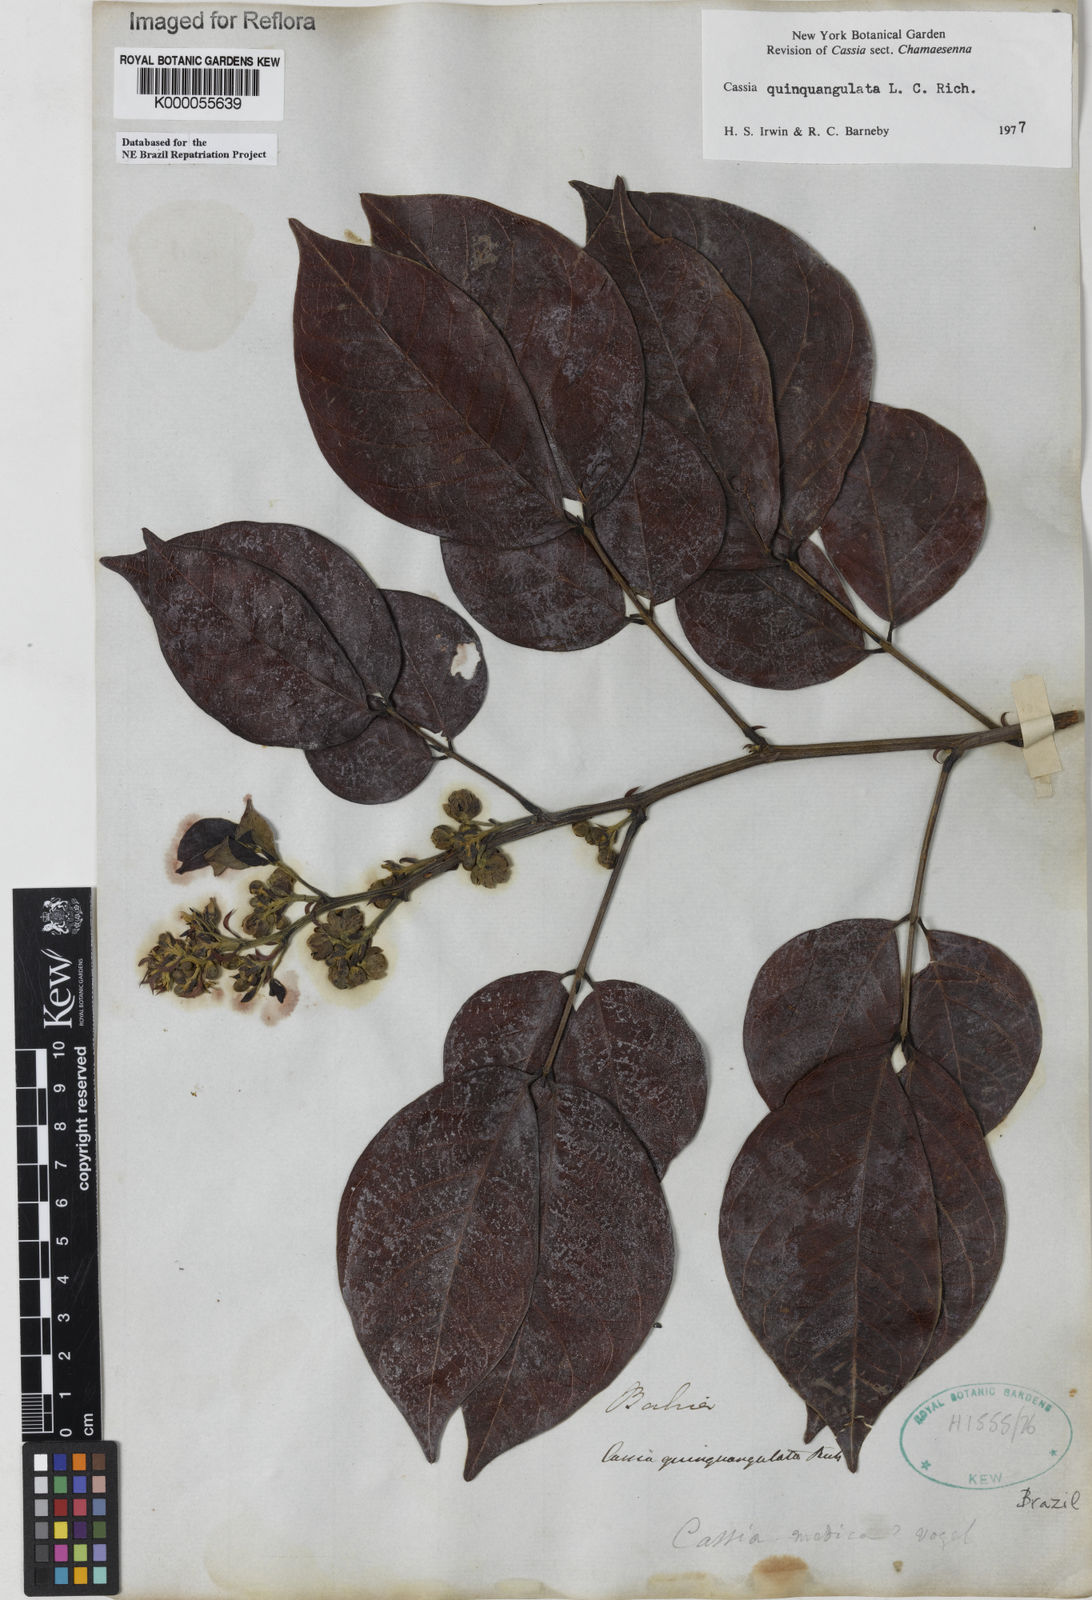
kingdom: Plantae
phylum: Tracheophyta
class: Magnoliopsida
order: Fabales
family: Fabaceae
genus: Senna
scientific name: Senna quinquangulata
